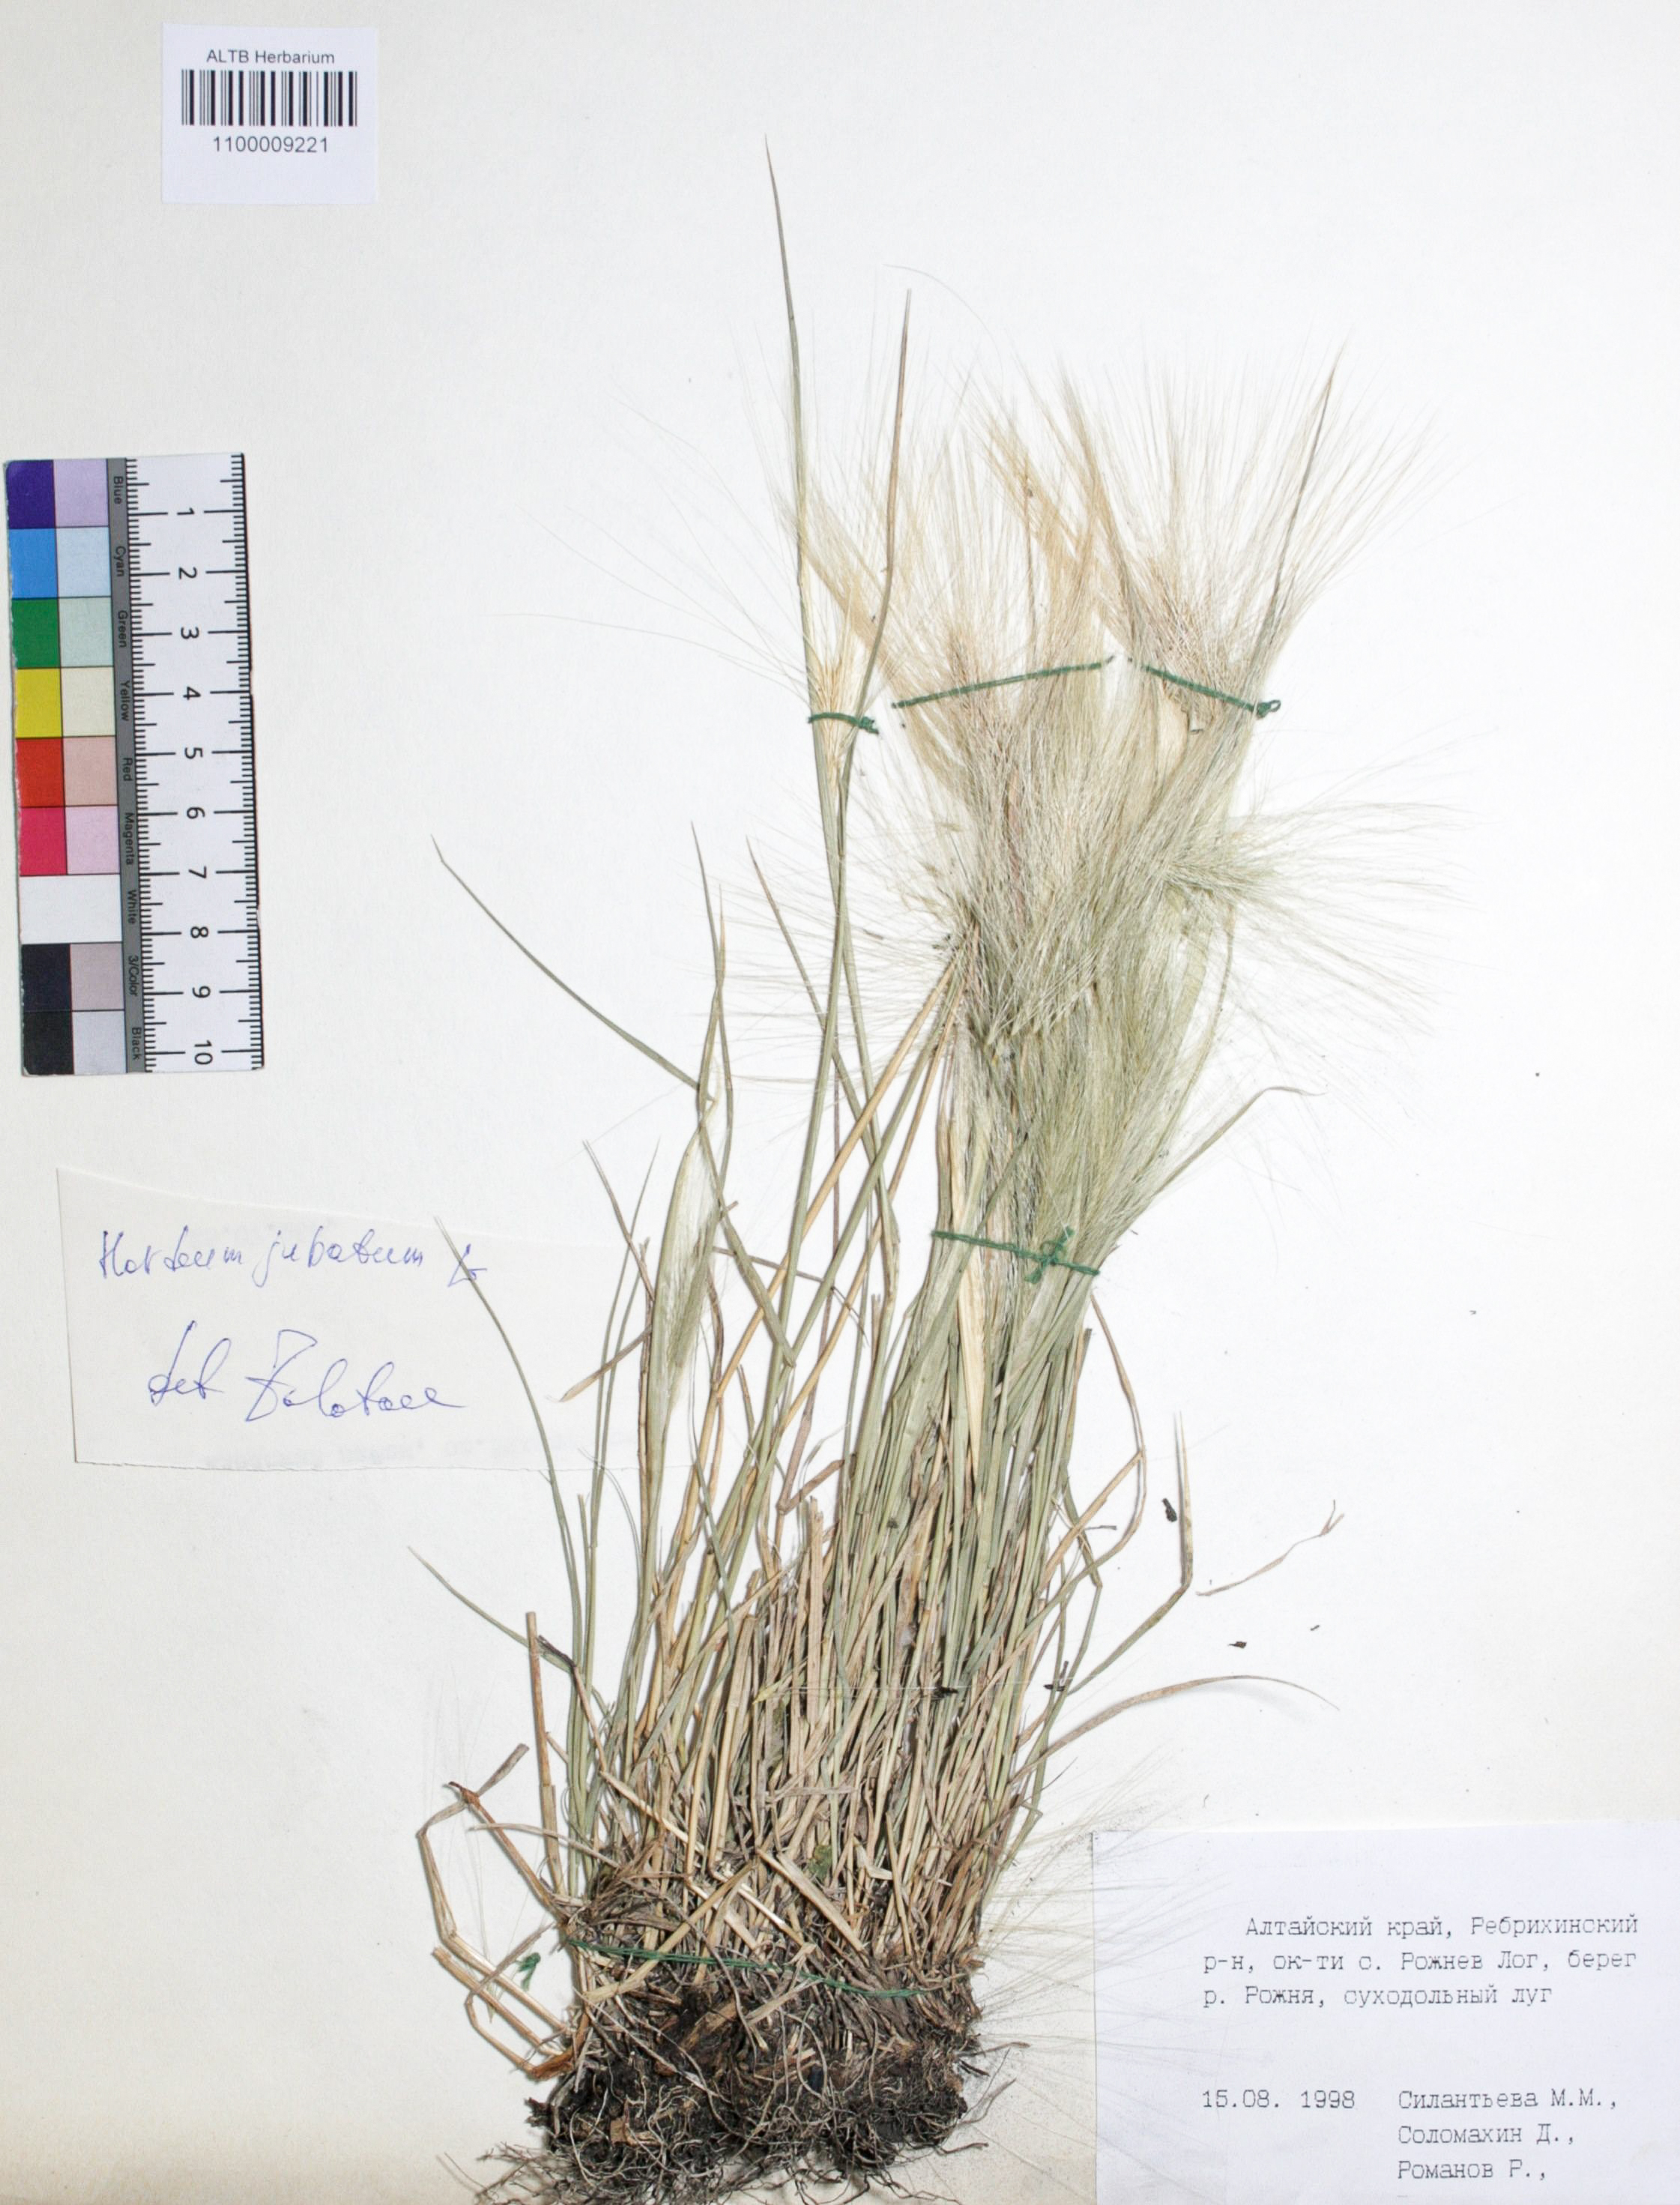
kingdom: Plantae
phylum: Tracheophyta
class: Liliopsida
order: Poales
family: Poaceae
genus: Hordeum
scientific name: Hordeum jubatum
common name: Foxtail barley
